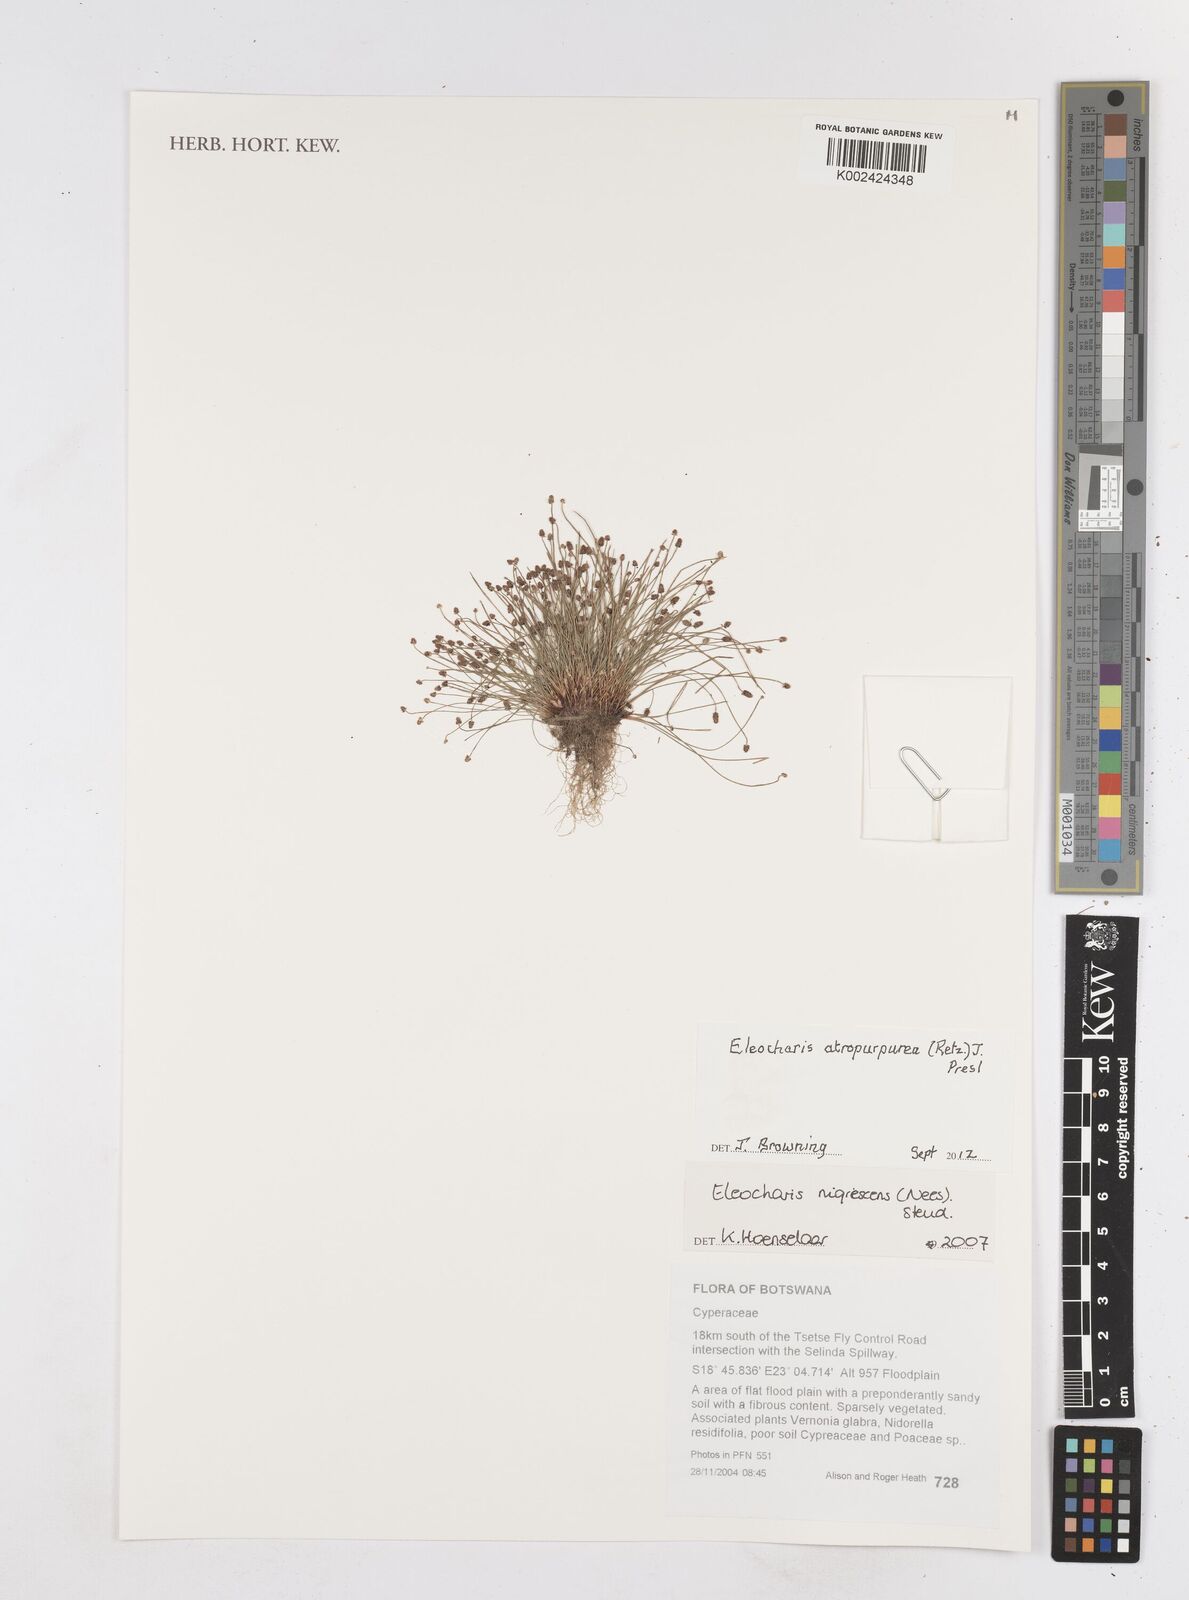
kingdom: Plantae
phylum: Tracheophyta
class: Liliopsida
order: Poales
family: Cyperaceae
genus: Eleocharis
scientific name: Eleocharis atropurpurea
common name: Purple spikerush
